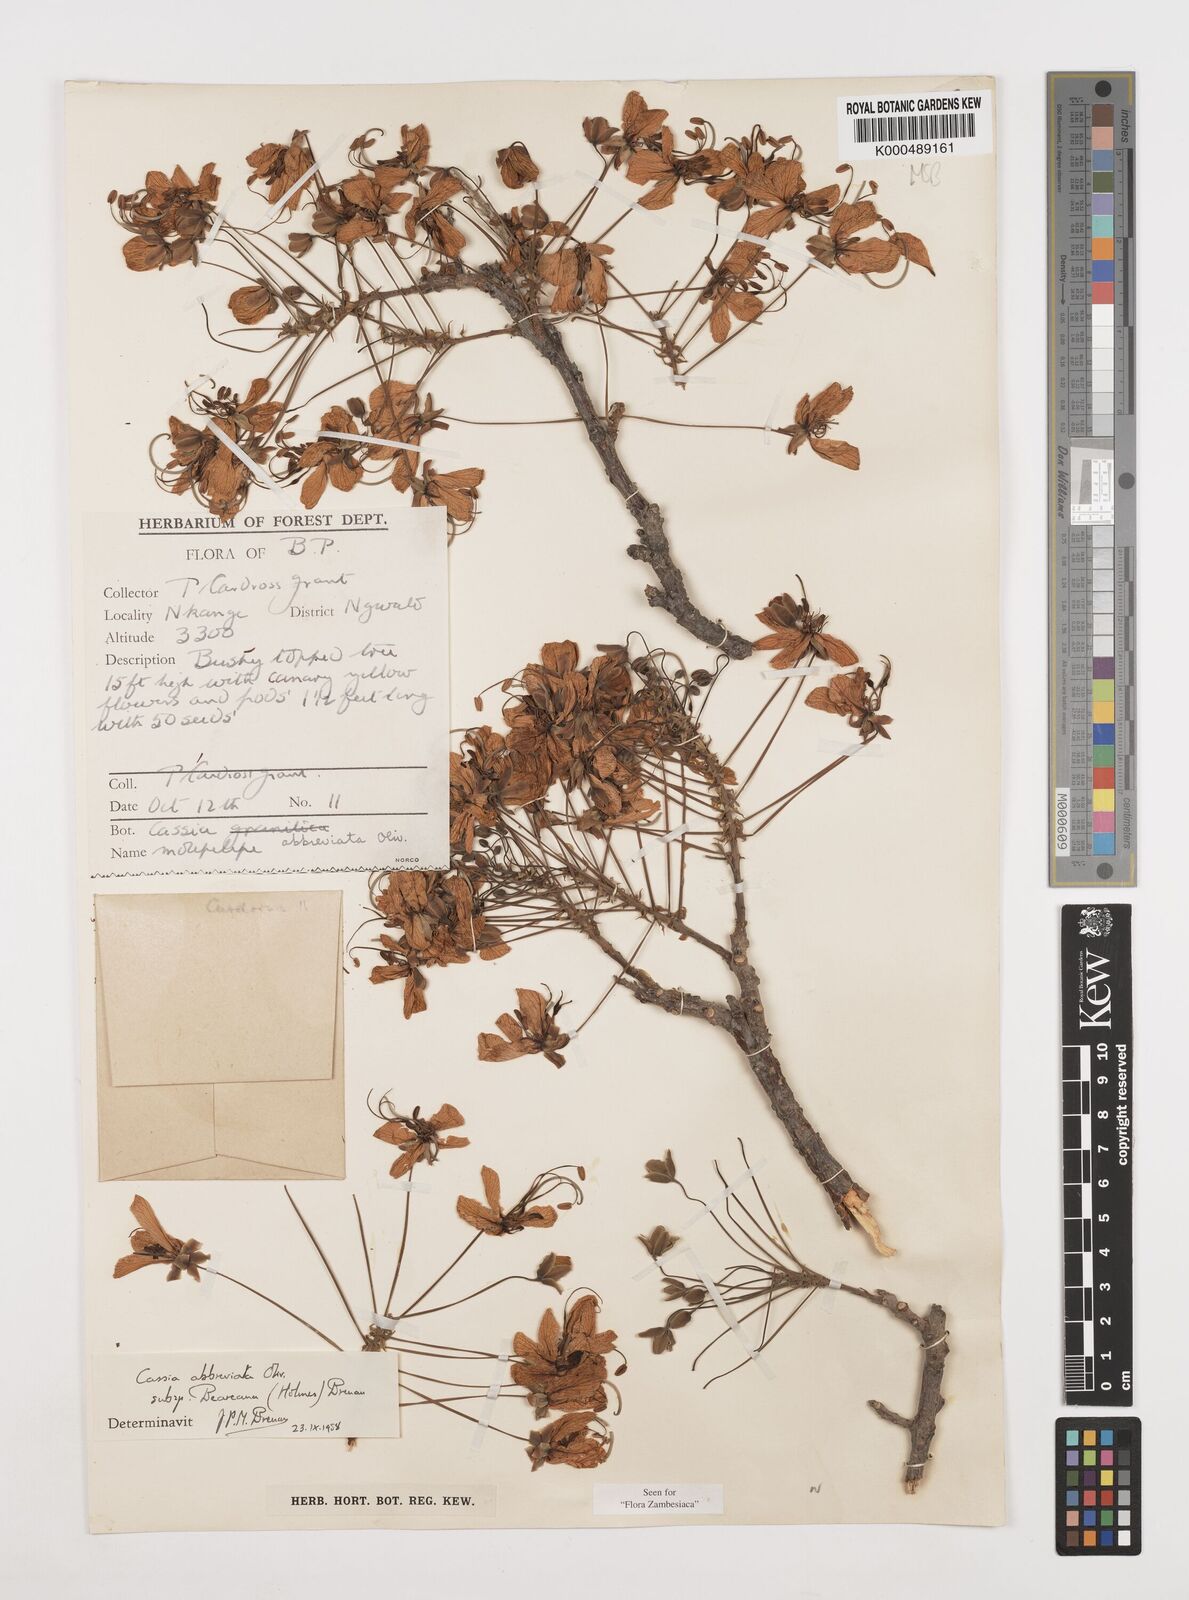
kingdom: Plantae
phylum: Tracheophyta
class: Magnoliopsida
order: Fabales
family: Fabaceae
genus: Cassia
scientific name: Cassia abbreviata
